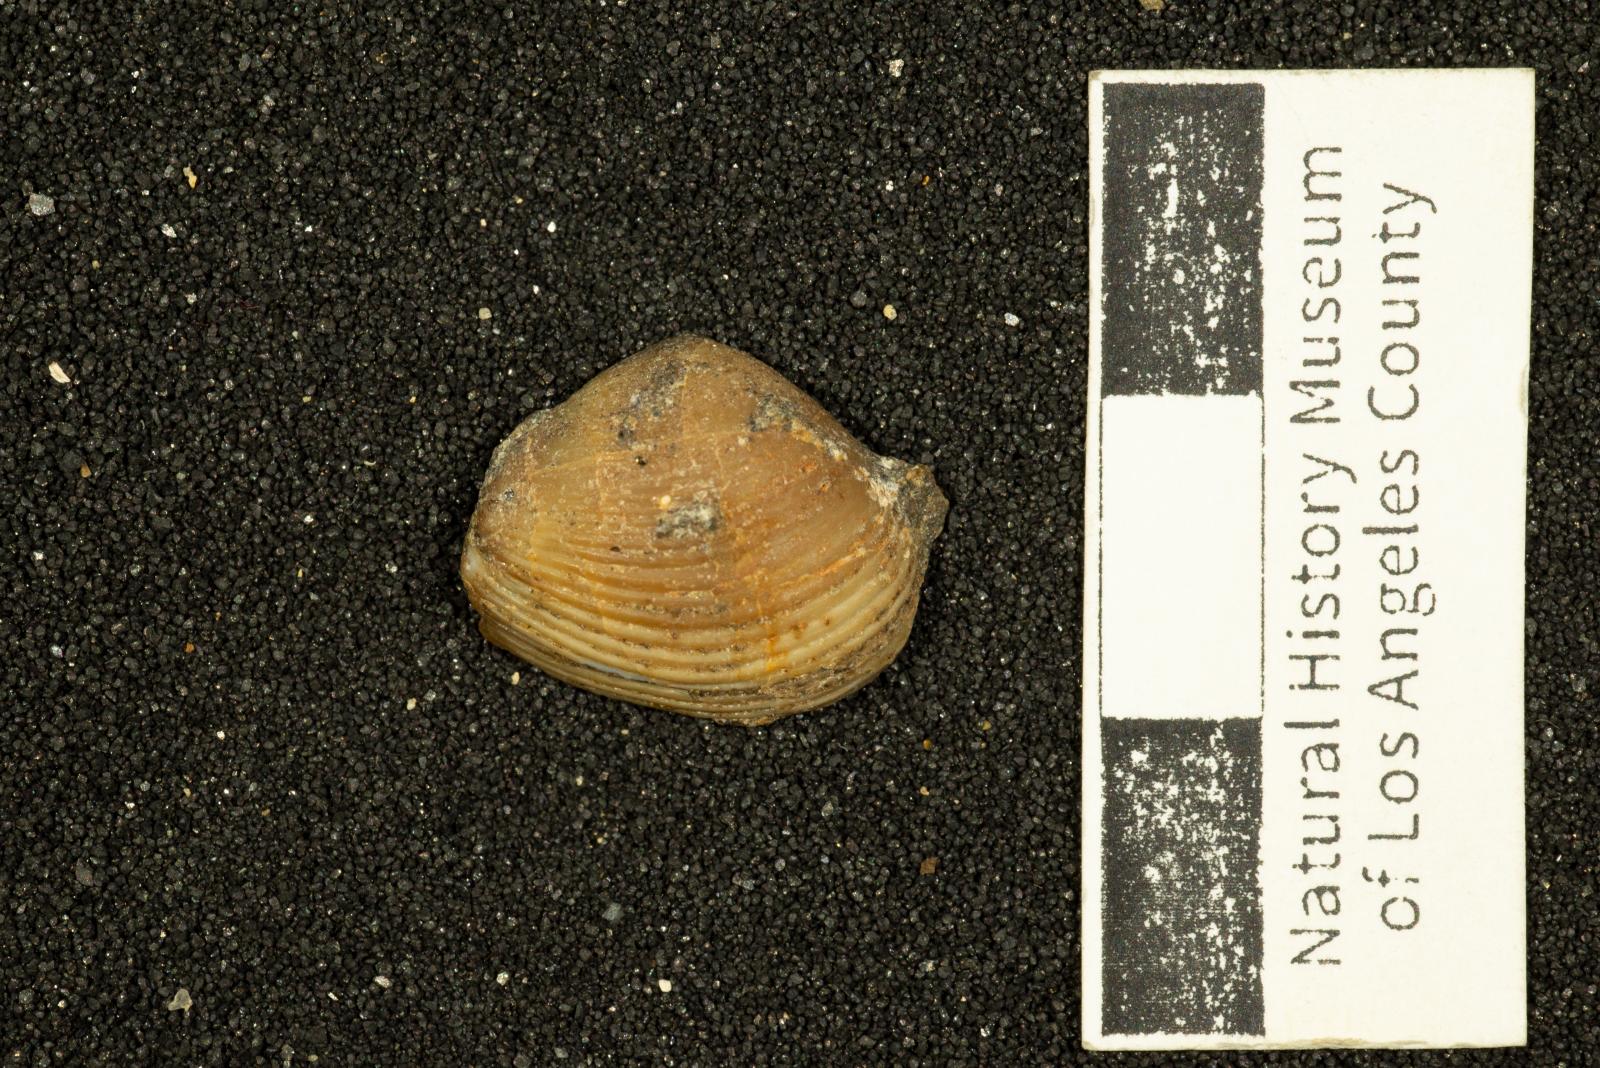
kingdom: Animalia
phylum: Mollusca
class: Bivalvia
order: Myida
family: Corbulidae
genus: Excorbula
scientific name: Excorbula parkyi
